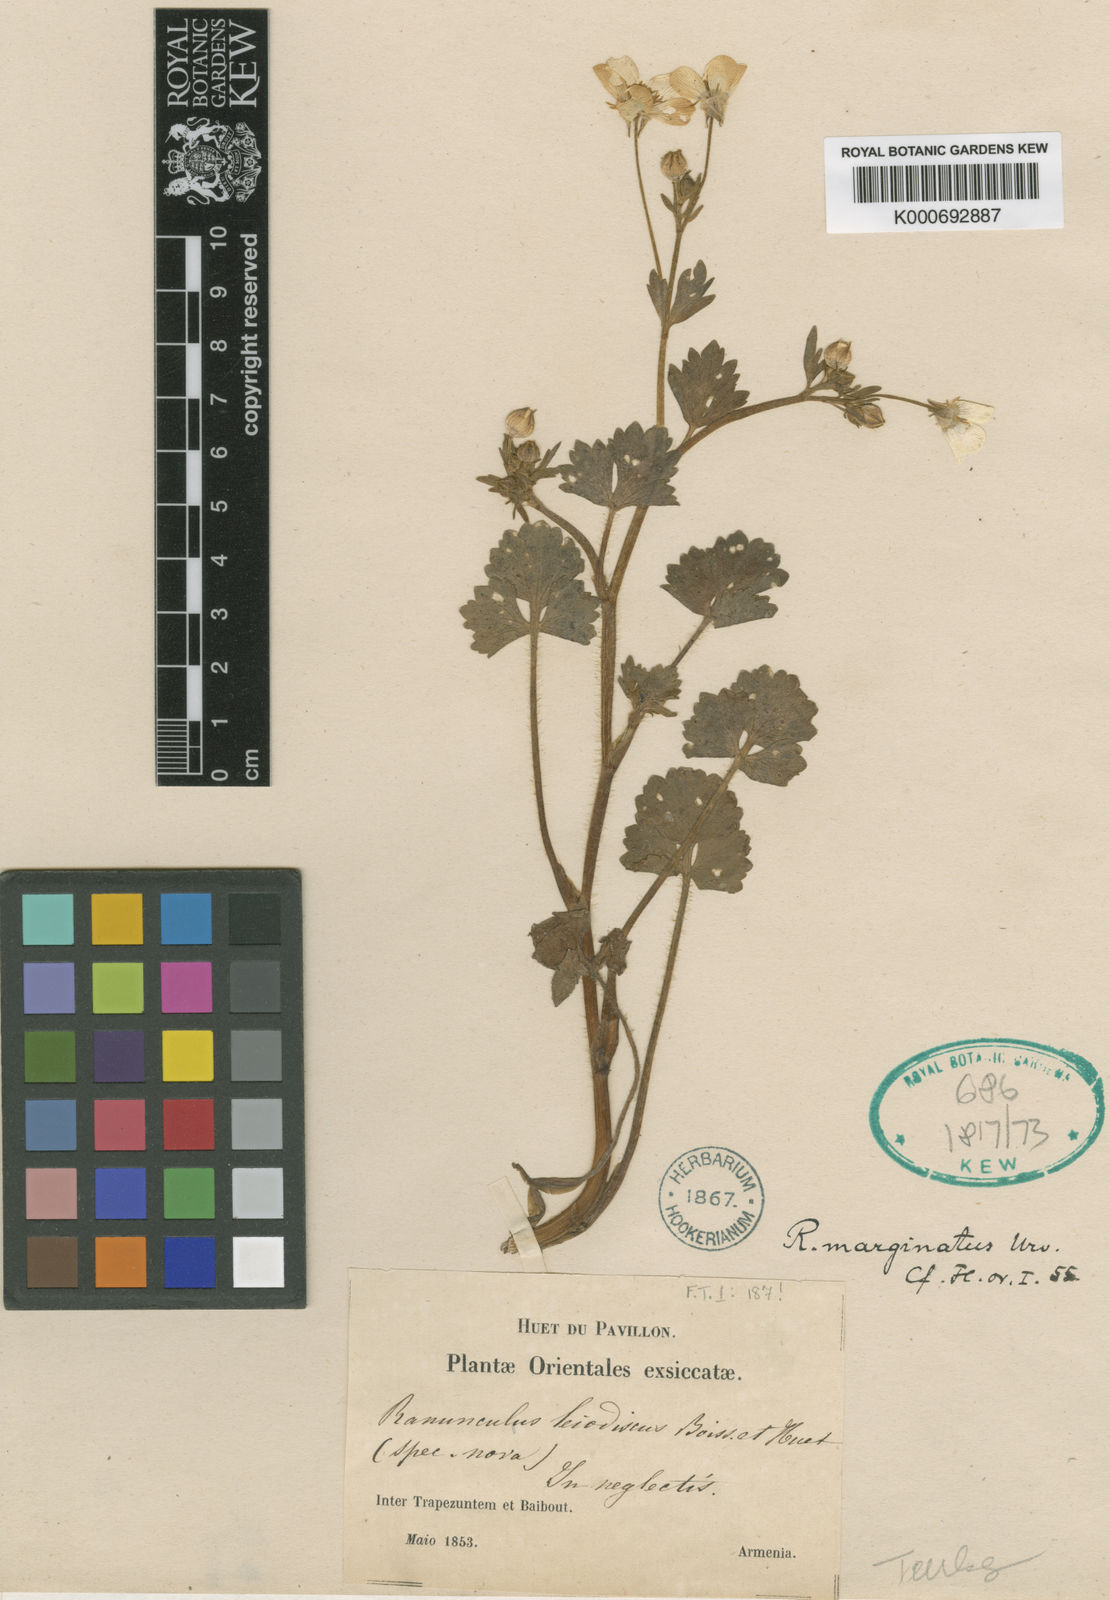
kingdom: Plantae
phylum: Tracheophyta
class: Magnoliopsida
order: Ranunculales
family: Ranunculaceae
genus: Ranunculus
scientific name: Ranunculus marginatus
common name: St. martin's buttercup
